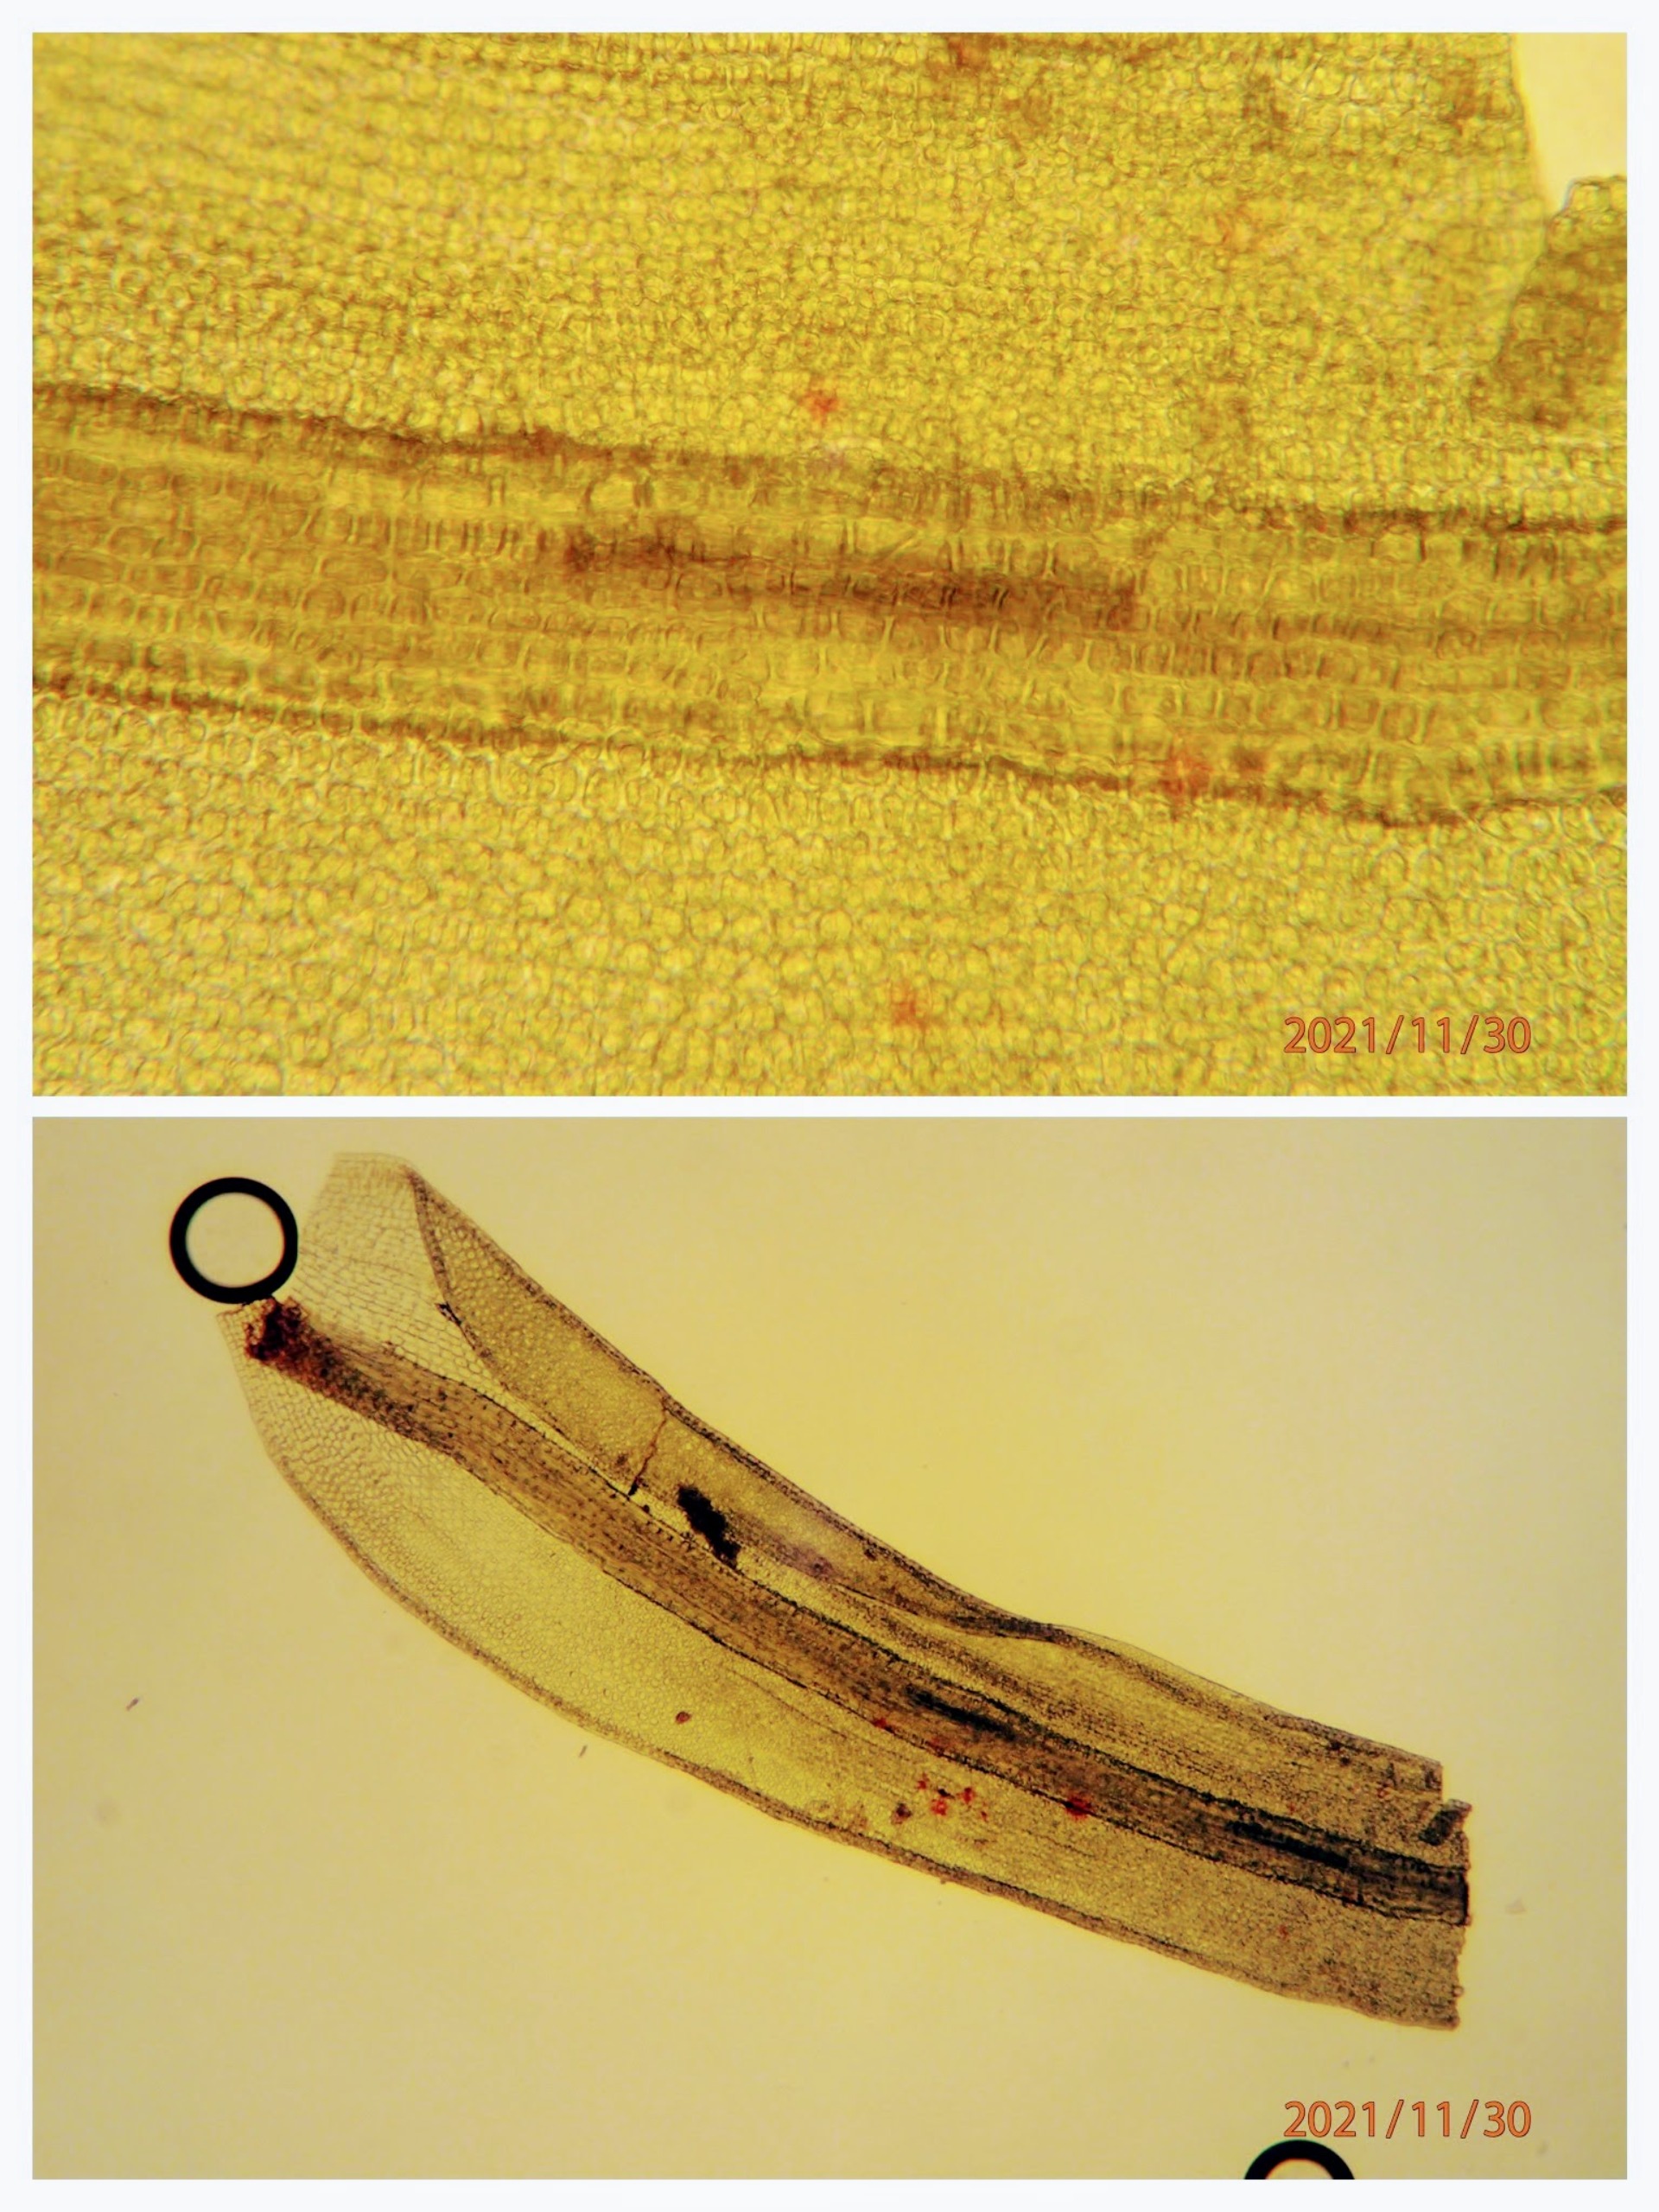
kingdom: Plantae
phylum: Bryophyta
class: Bryopsida
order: Pottiales
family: Pottiaceae
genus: Vinealobryum
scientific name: Vinealobryum insulanum
